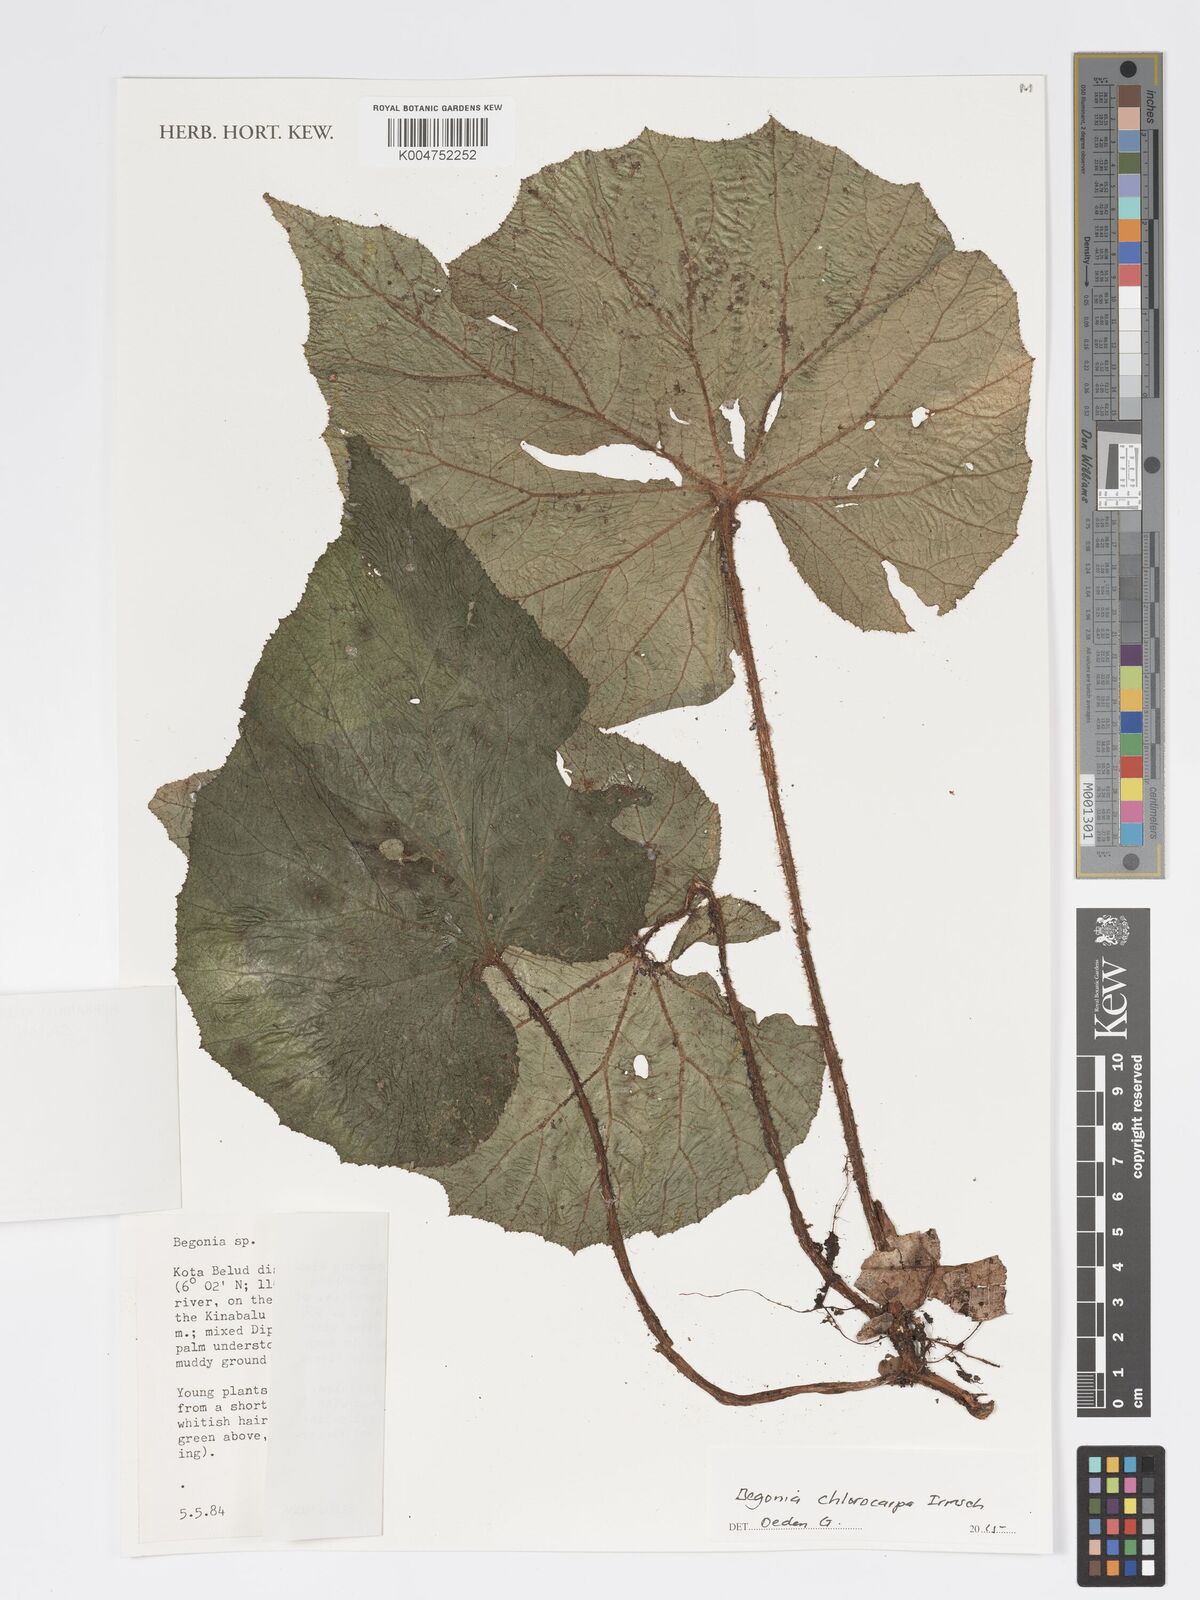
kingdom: Plantae
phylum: Tracheophyta
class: Magnoliopsida
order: Cucurbitales
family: Begoniaceae
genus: Begonia
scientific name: Begonia chlorocarpa
